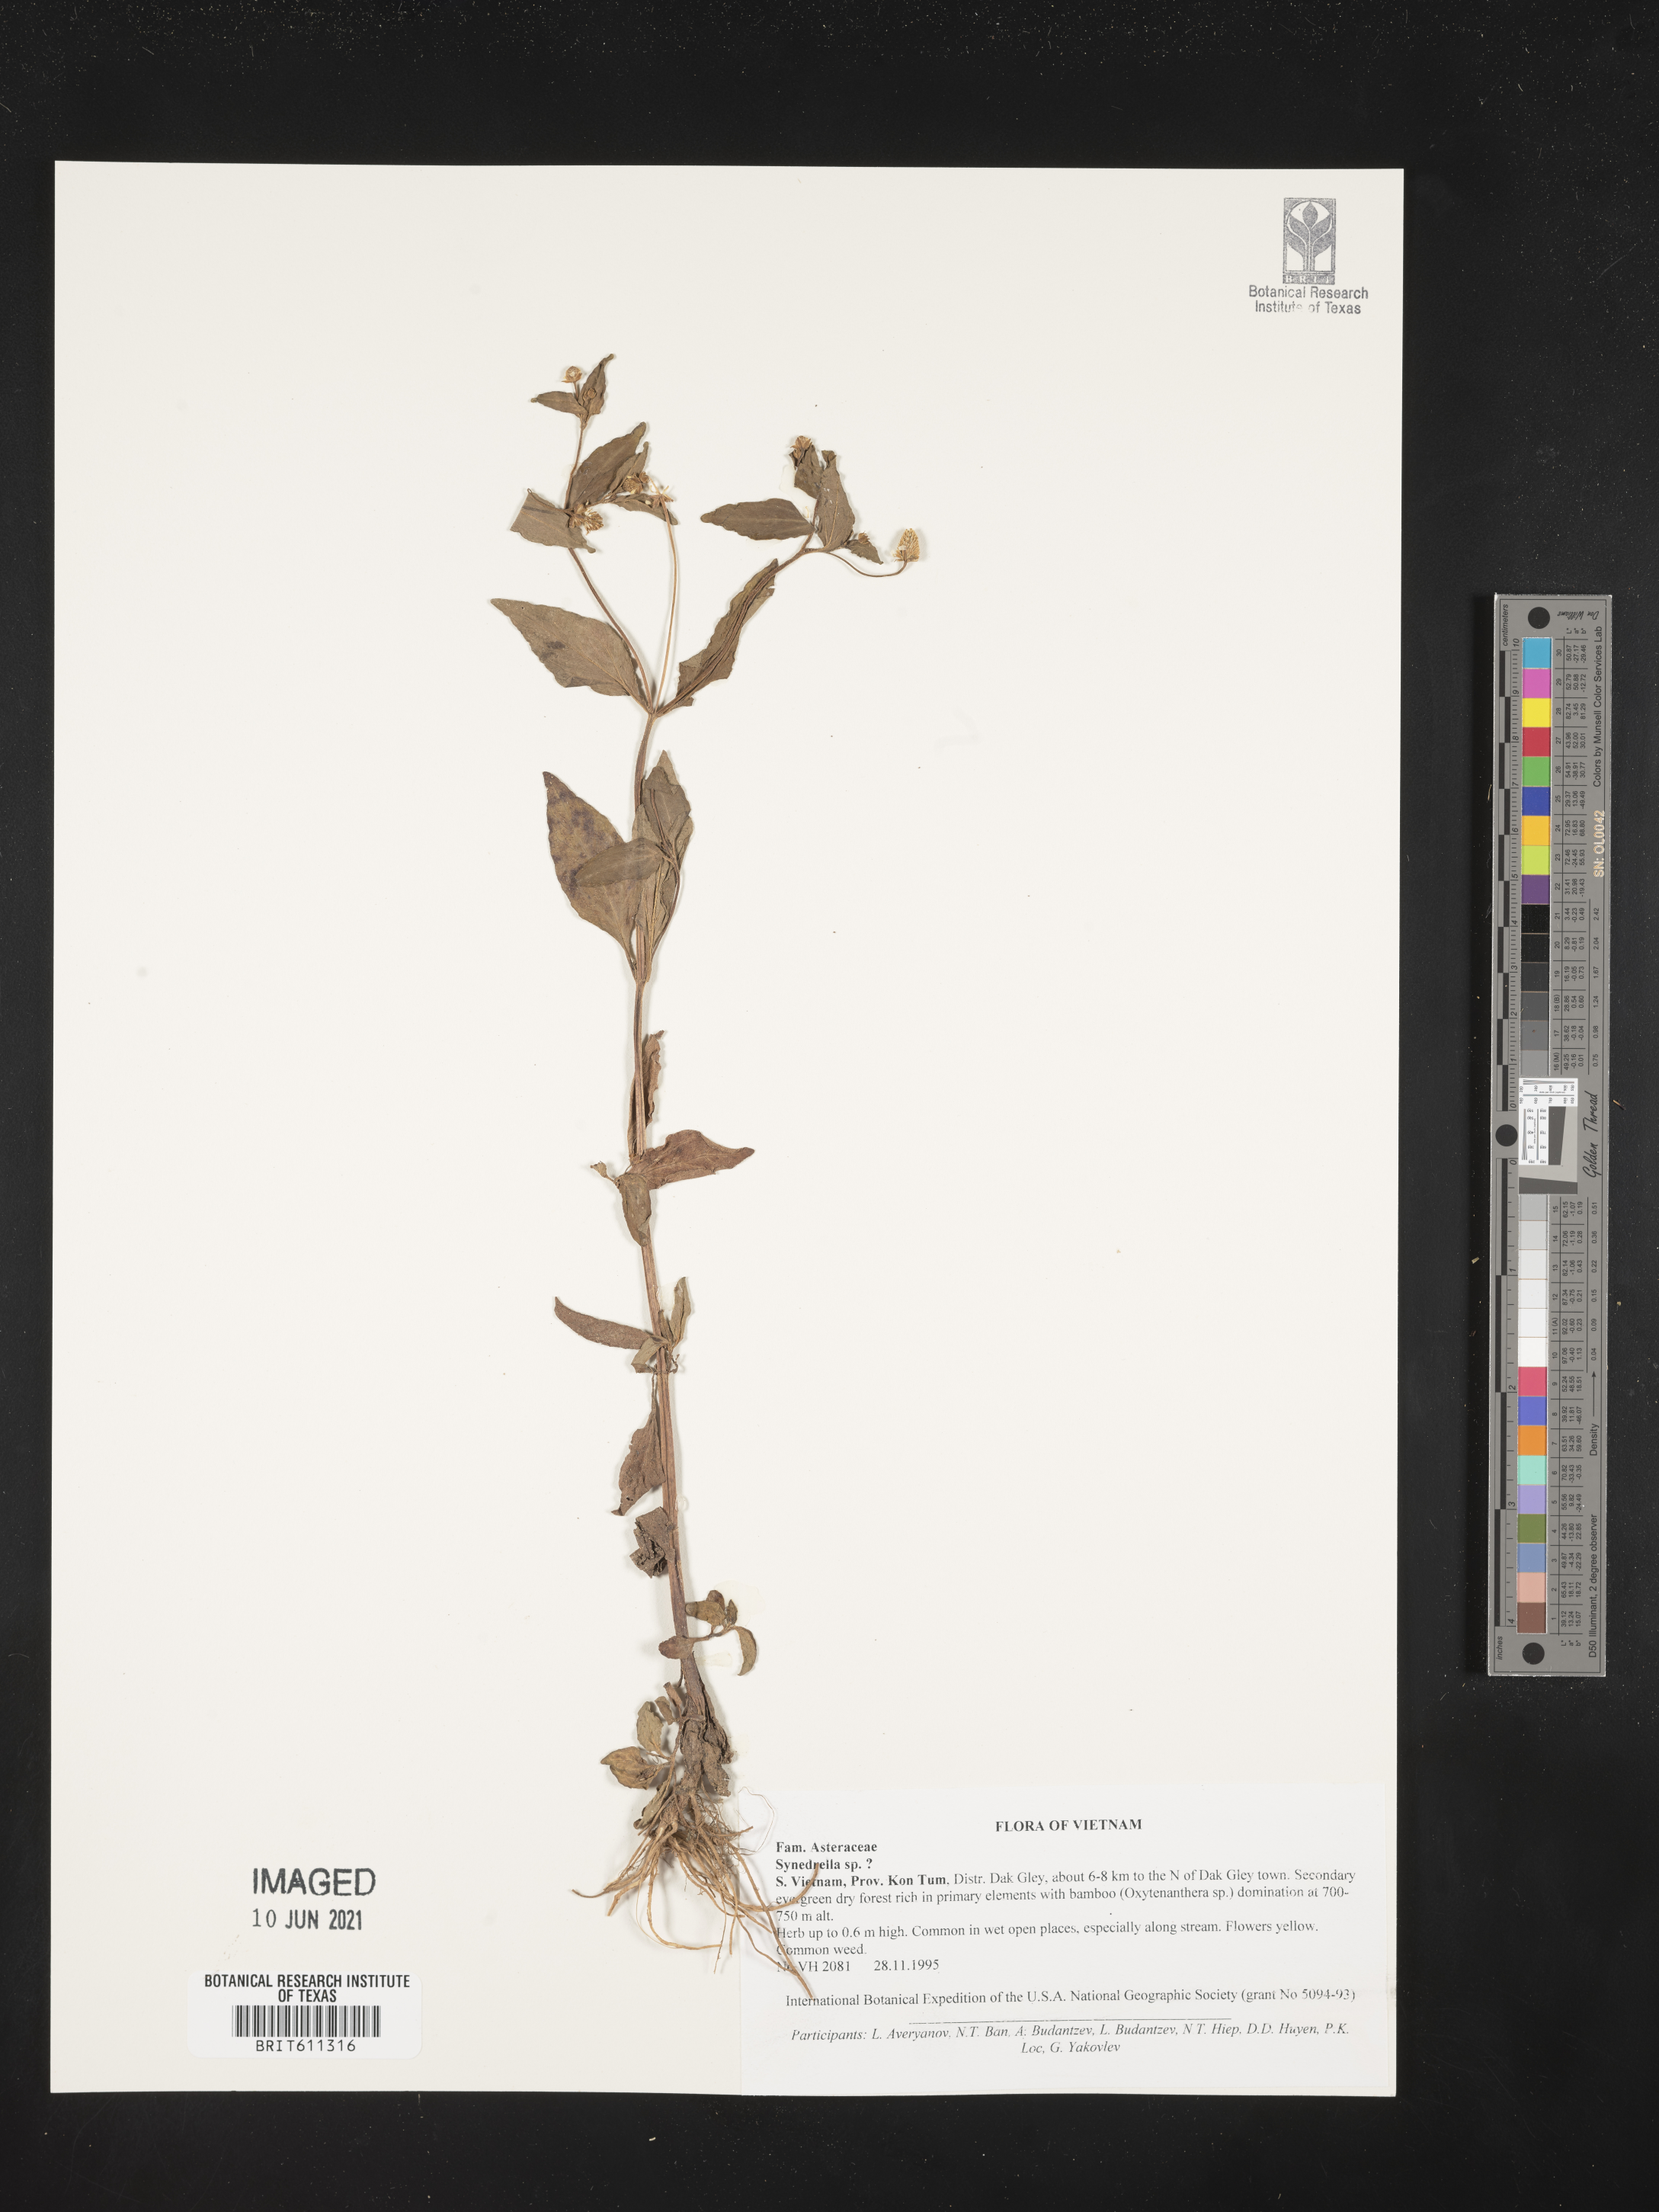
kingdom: Plantae
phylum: Tracheophyta
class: Magnoliopsida
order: Asterales
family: Asteraceae
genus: Synedrella
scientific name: Synedrella
